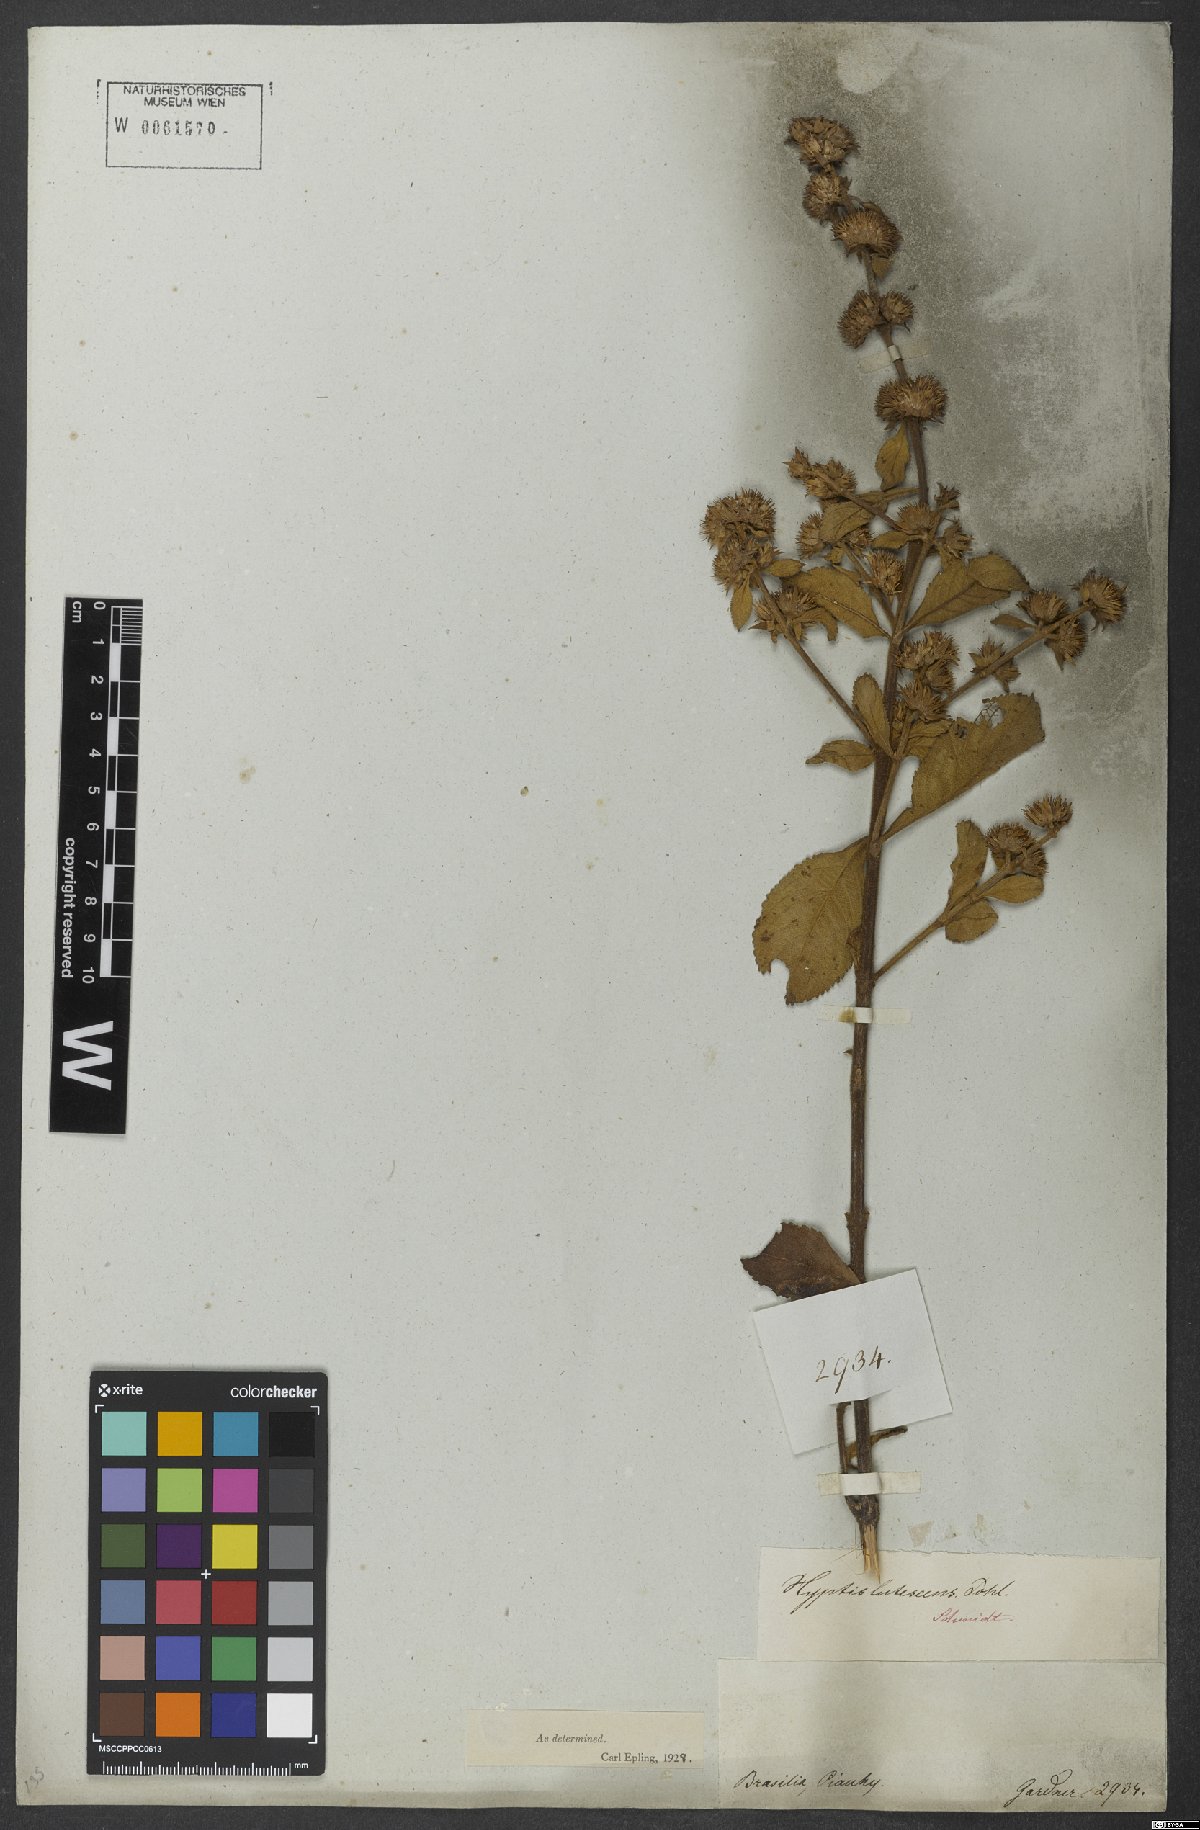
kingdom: Plantae
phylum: Tracheophyta
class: Magnoliopsida
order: Lamiales
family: Lamiaceae
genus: Hyptis
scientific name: Hyptis lutescens
